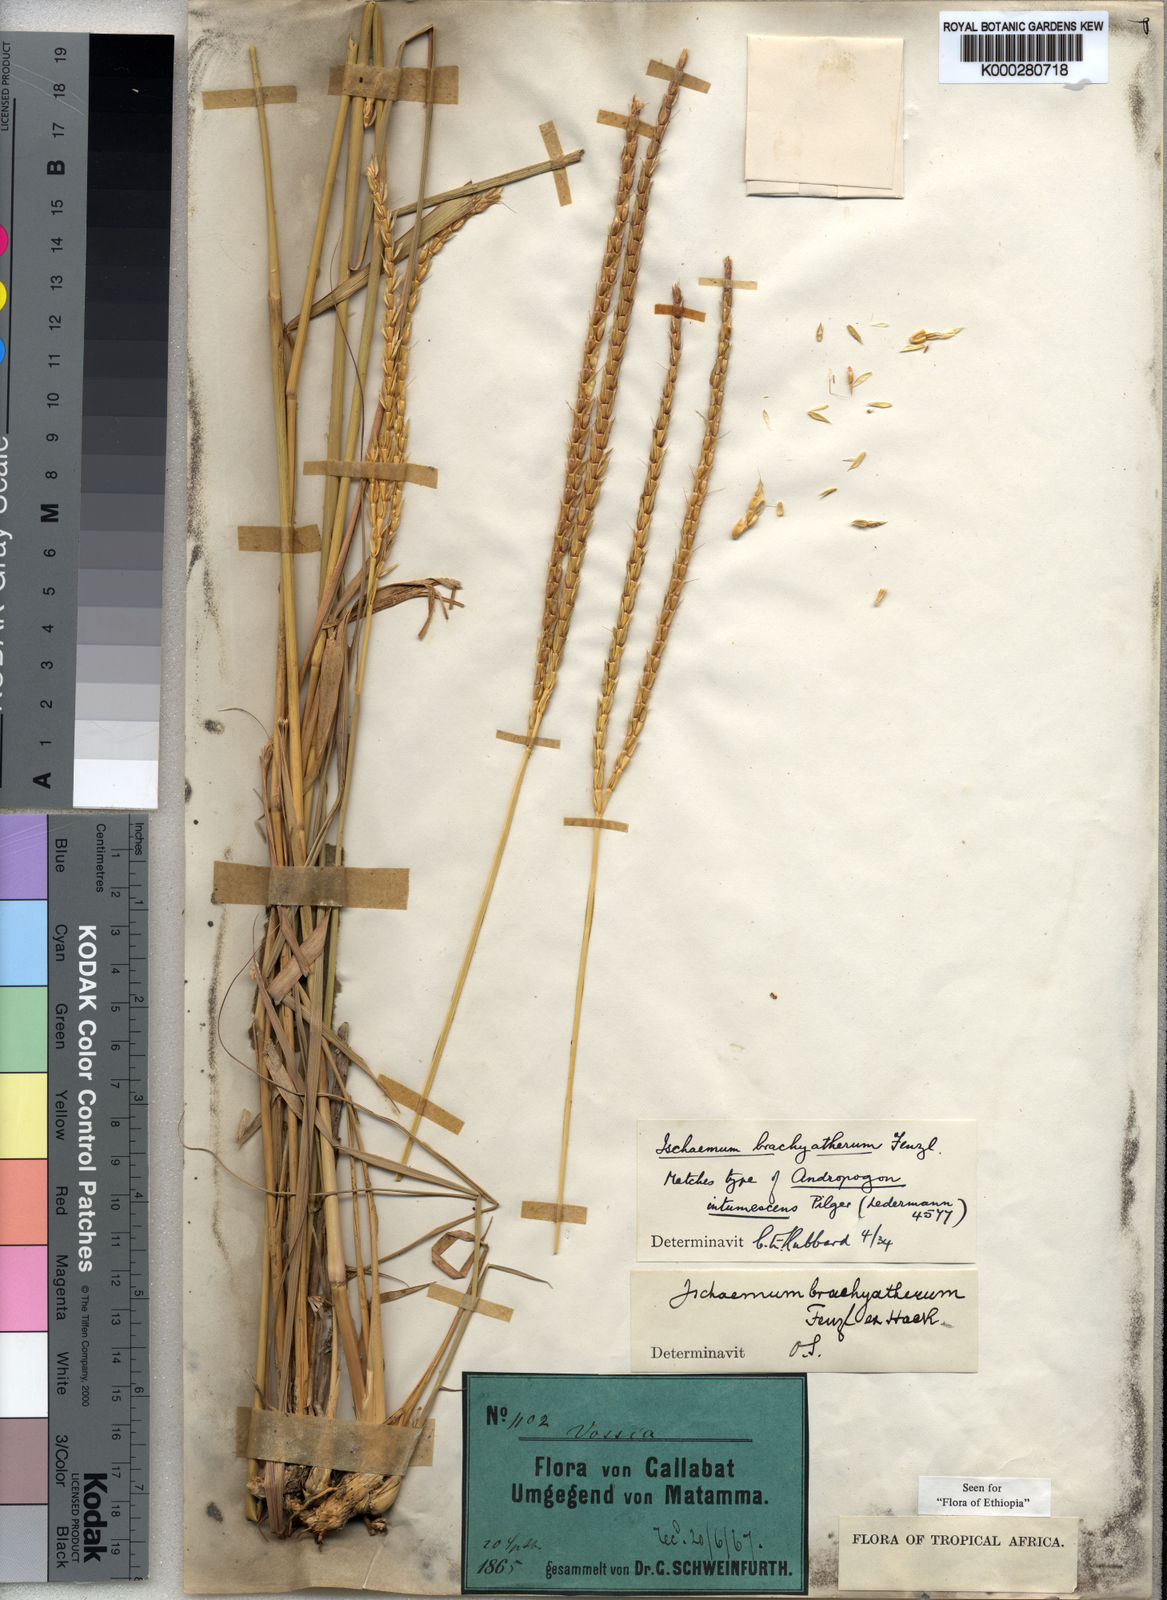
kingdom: Plantae
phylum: Tracheophyta
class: Liliopsida
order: Poales
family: Poaceae
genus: Ischaemum
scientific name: Ischaemum afrum
